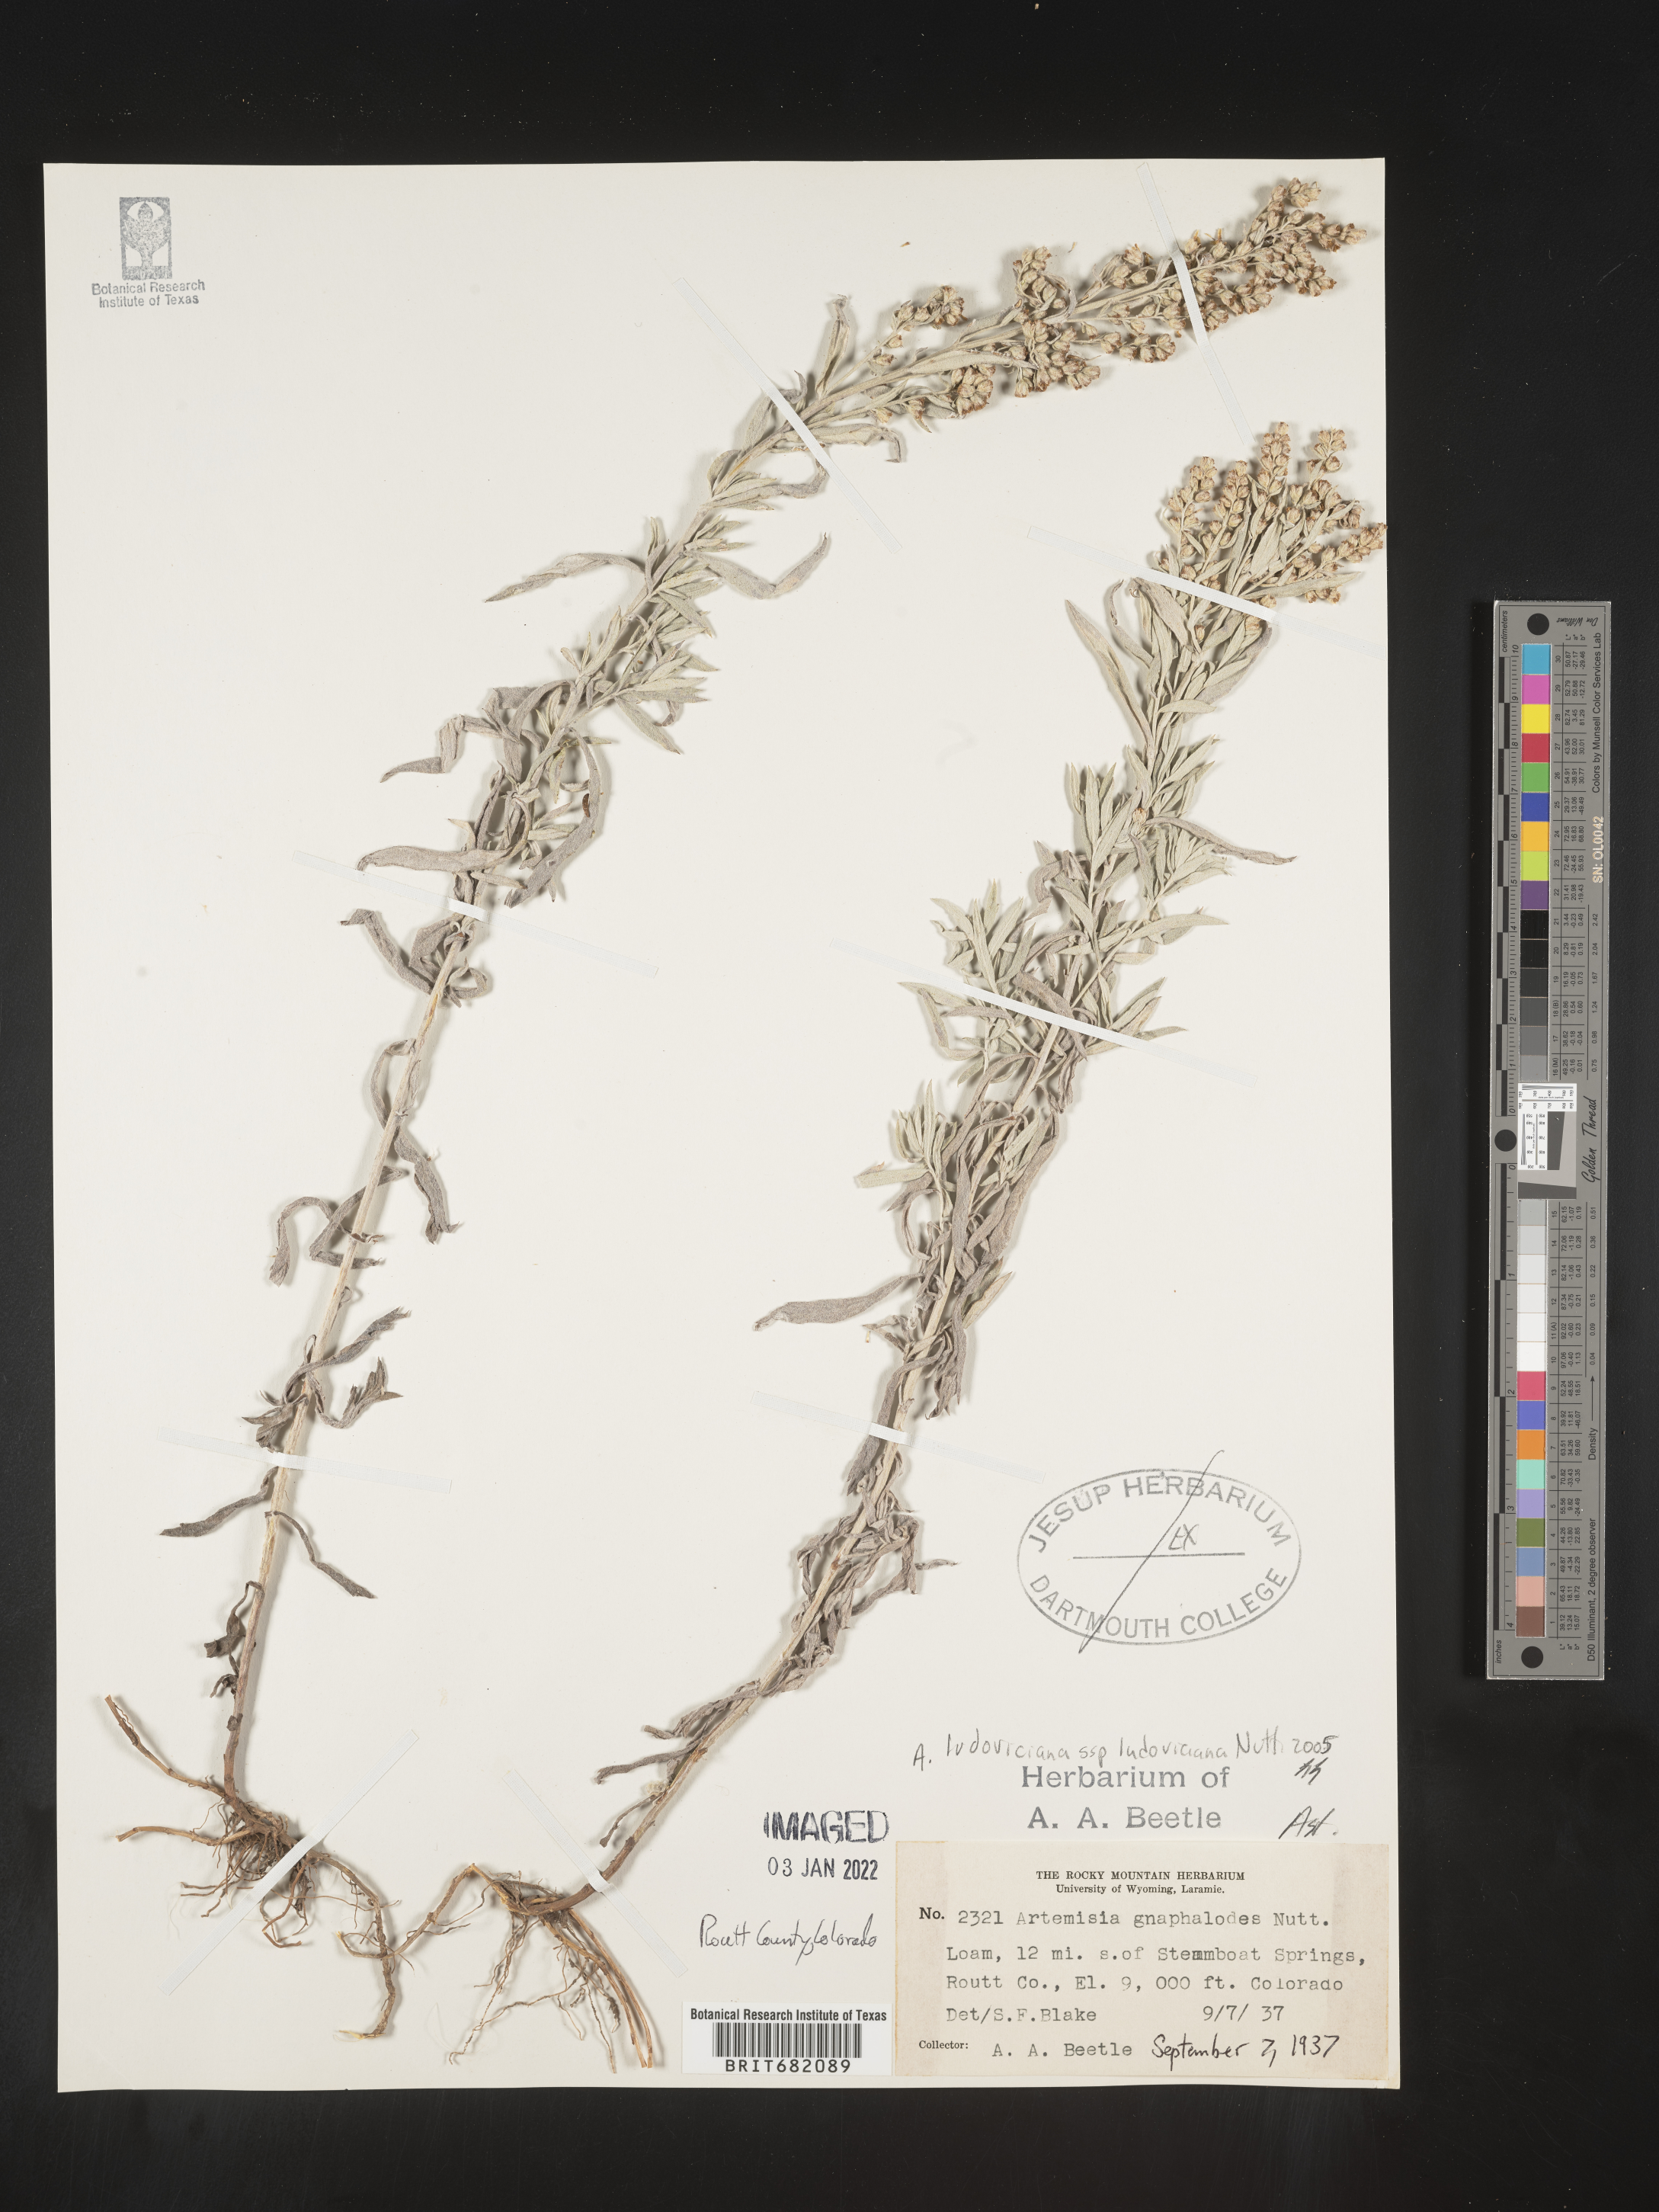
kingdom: Plantae
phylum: Tracheophyta
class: Magnoliopsida
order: Asterales
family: Asteraceae
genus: Artemisia
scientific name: Artemisia ludoviciana
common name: Western mugwort
